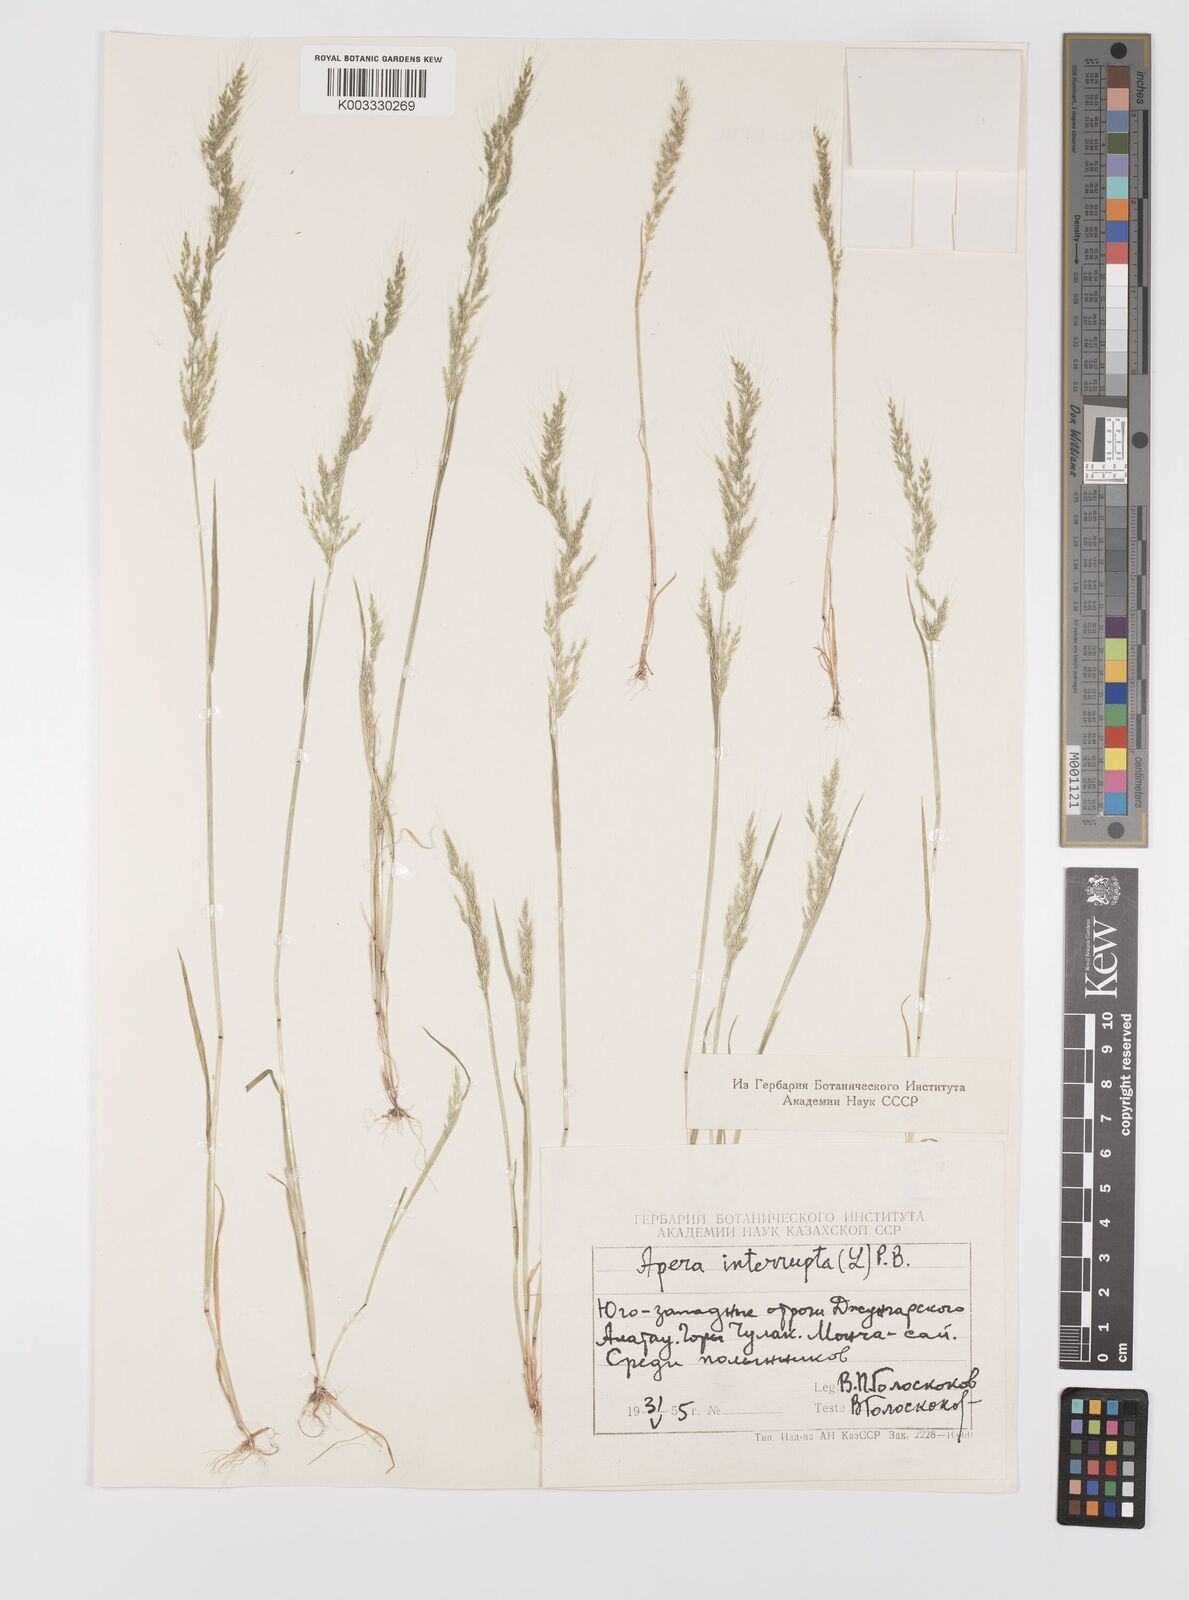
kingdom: Plantae
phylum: Tracheophyta
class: Liliopsida
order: Poales
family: Poaceae
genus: Apera
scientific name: Apera interrupta
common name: Dense silky-bent
